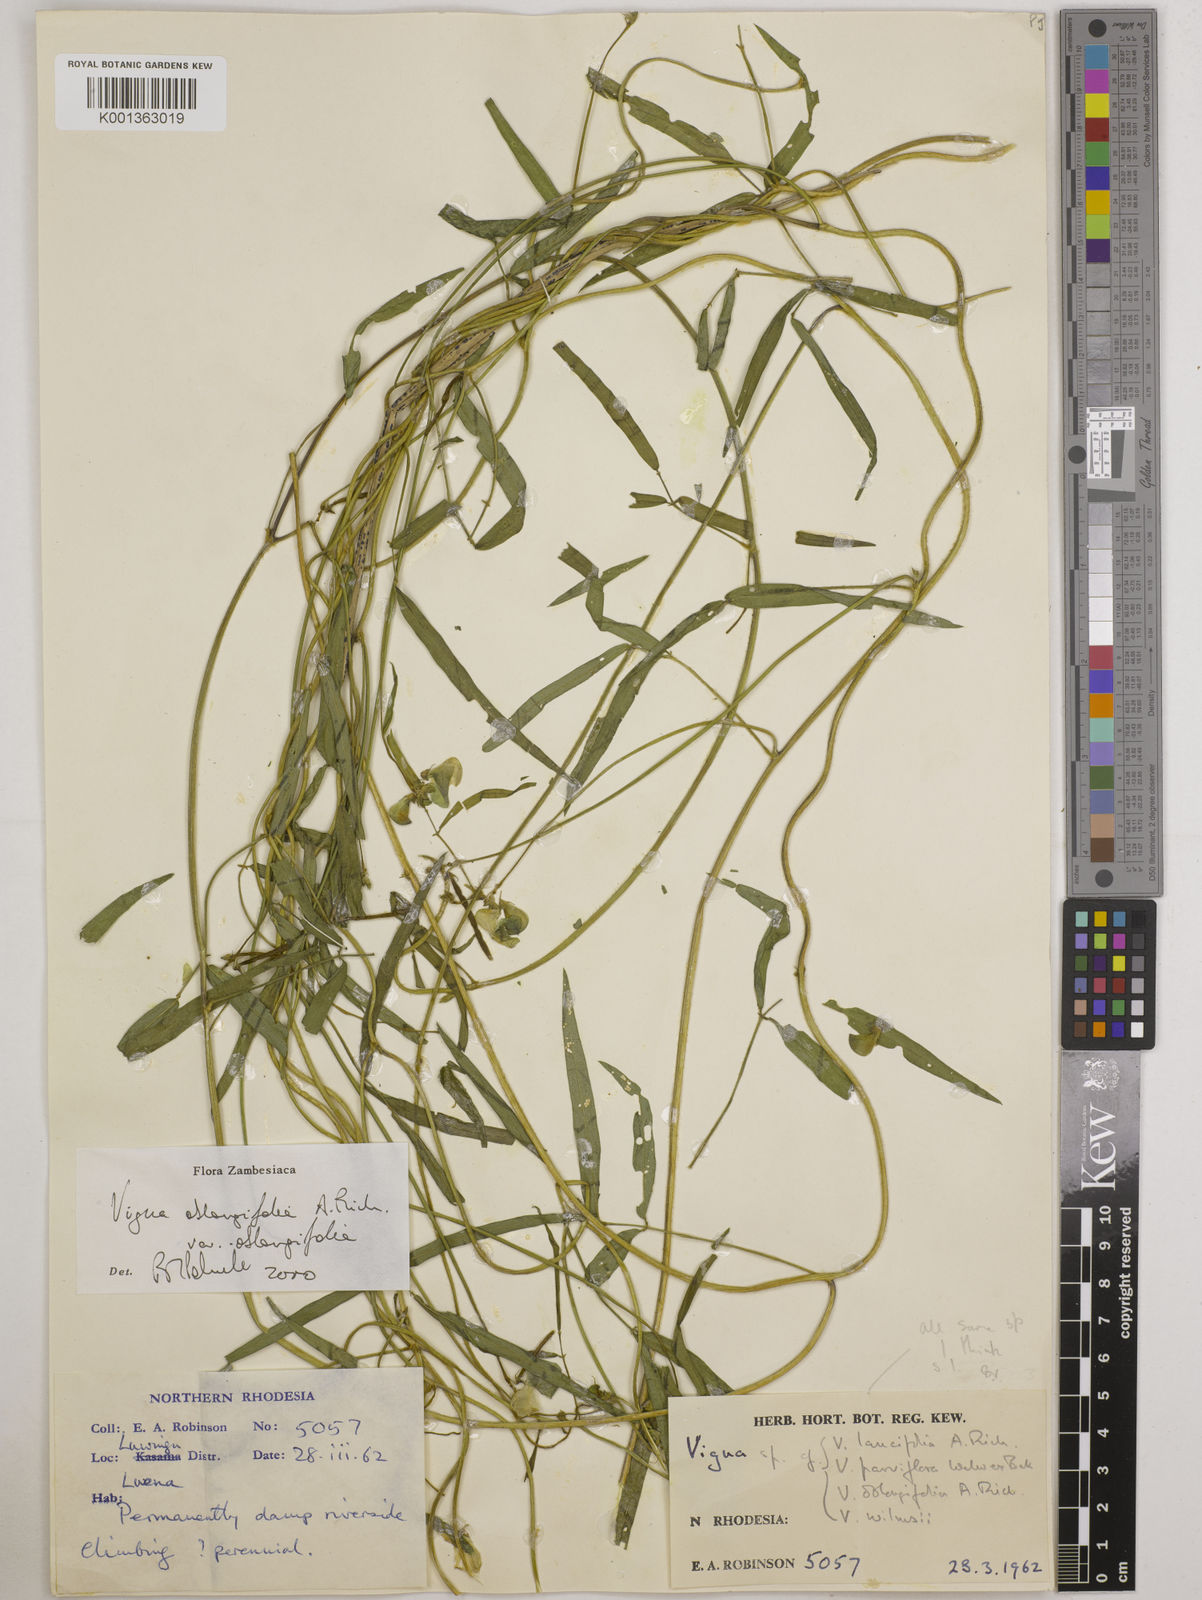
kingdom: Plantae
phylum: Tracheophyta
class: Magnoliopsida
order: Fabales
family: Fabaceae
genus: Vigna
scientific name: Vigna oblongifolia
